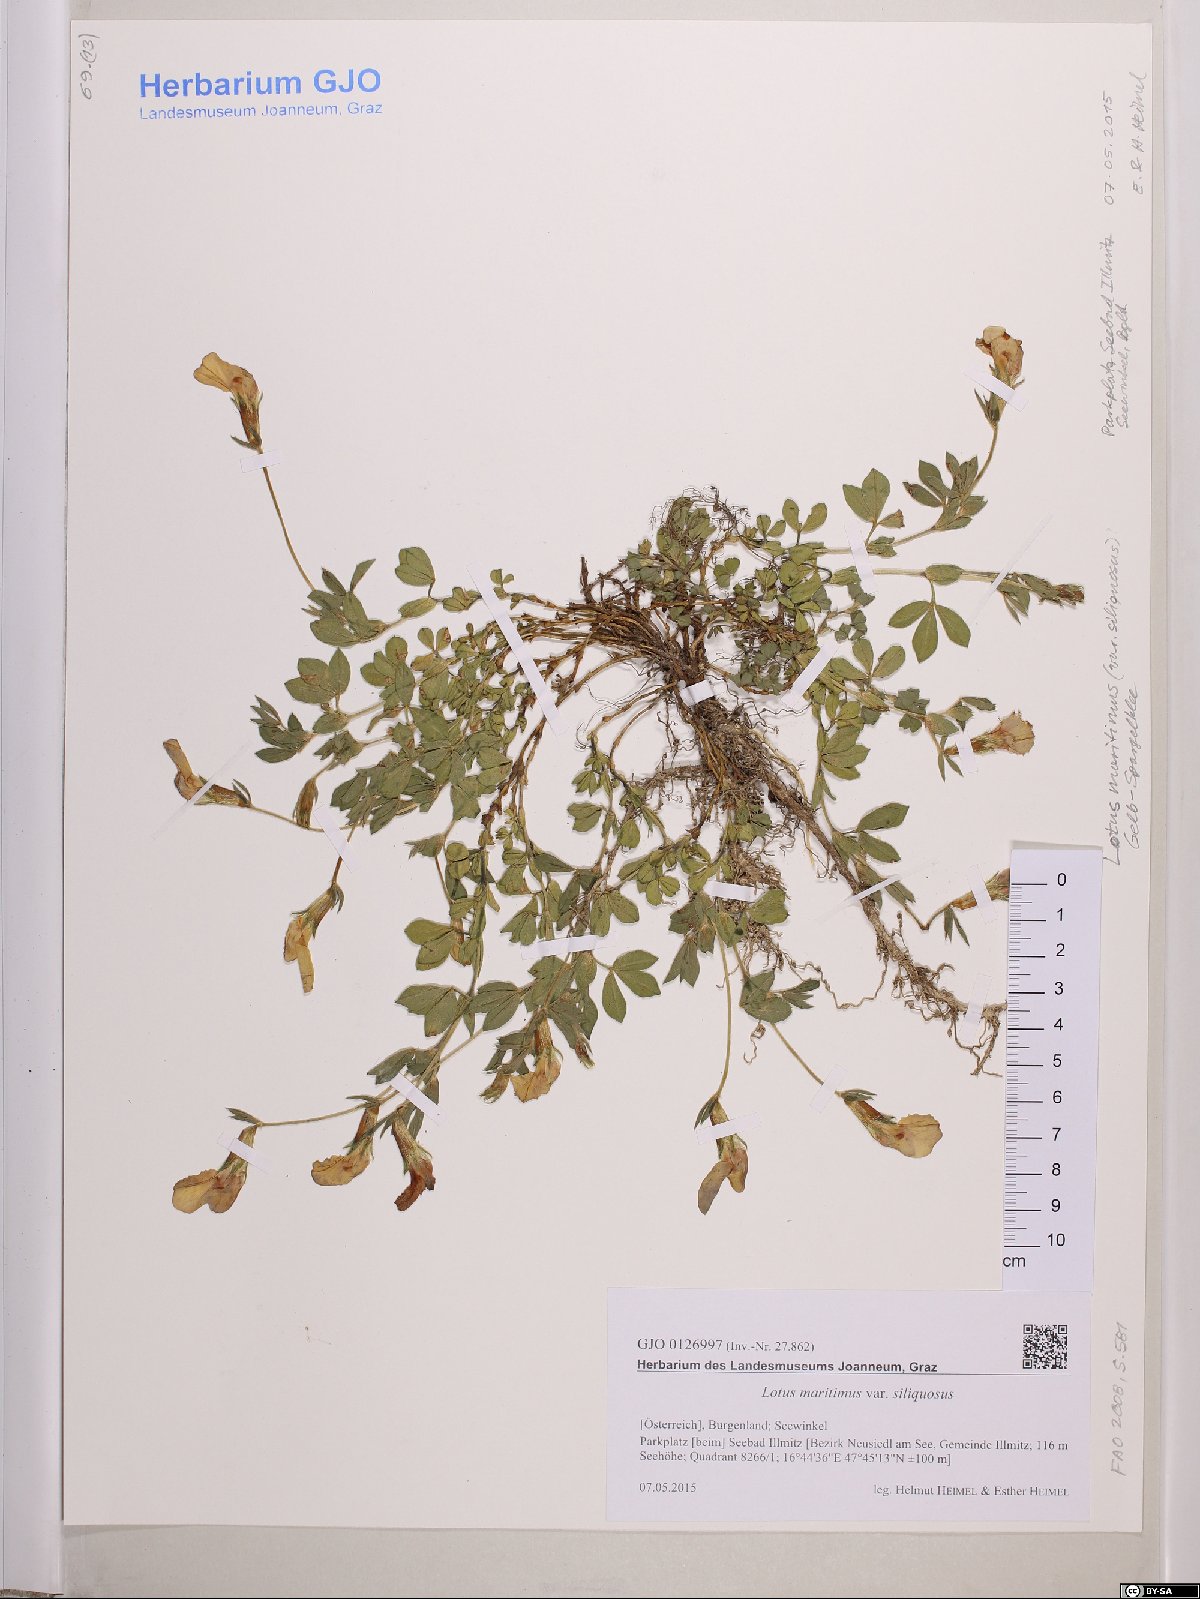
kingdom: Plantae
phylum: Tracheophyta
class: Magnoliopsida
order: Fabales
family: Fabaceae
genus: Lathyrus
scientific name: Lathyrus inconspicuus
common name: Inconspicuous pea
